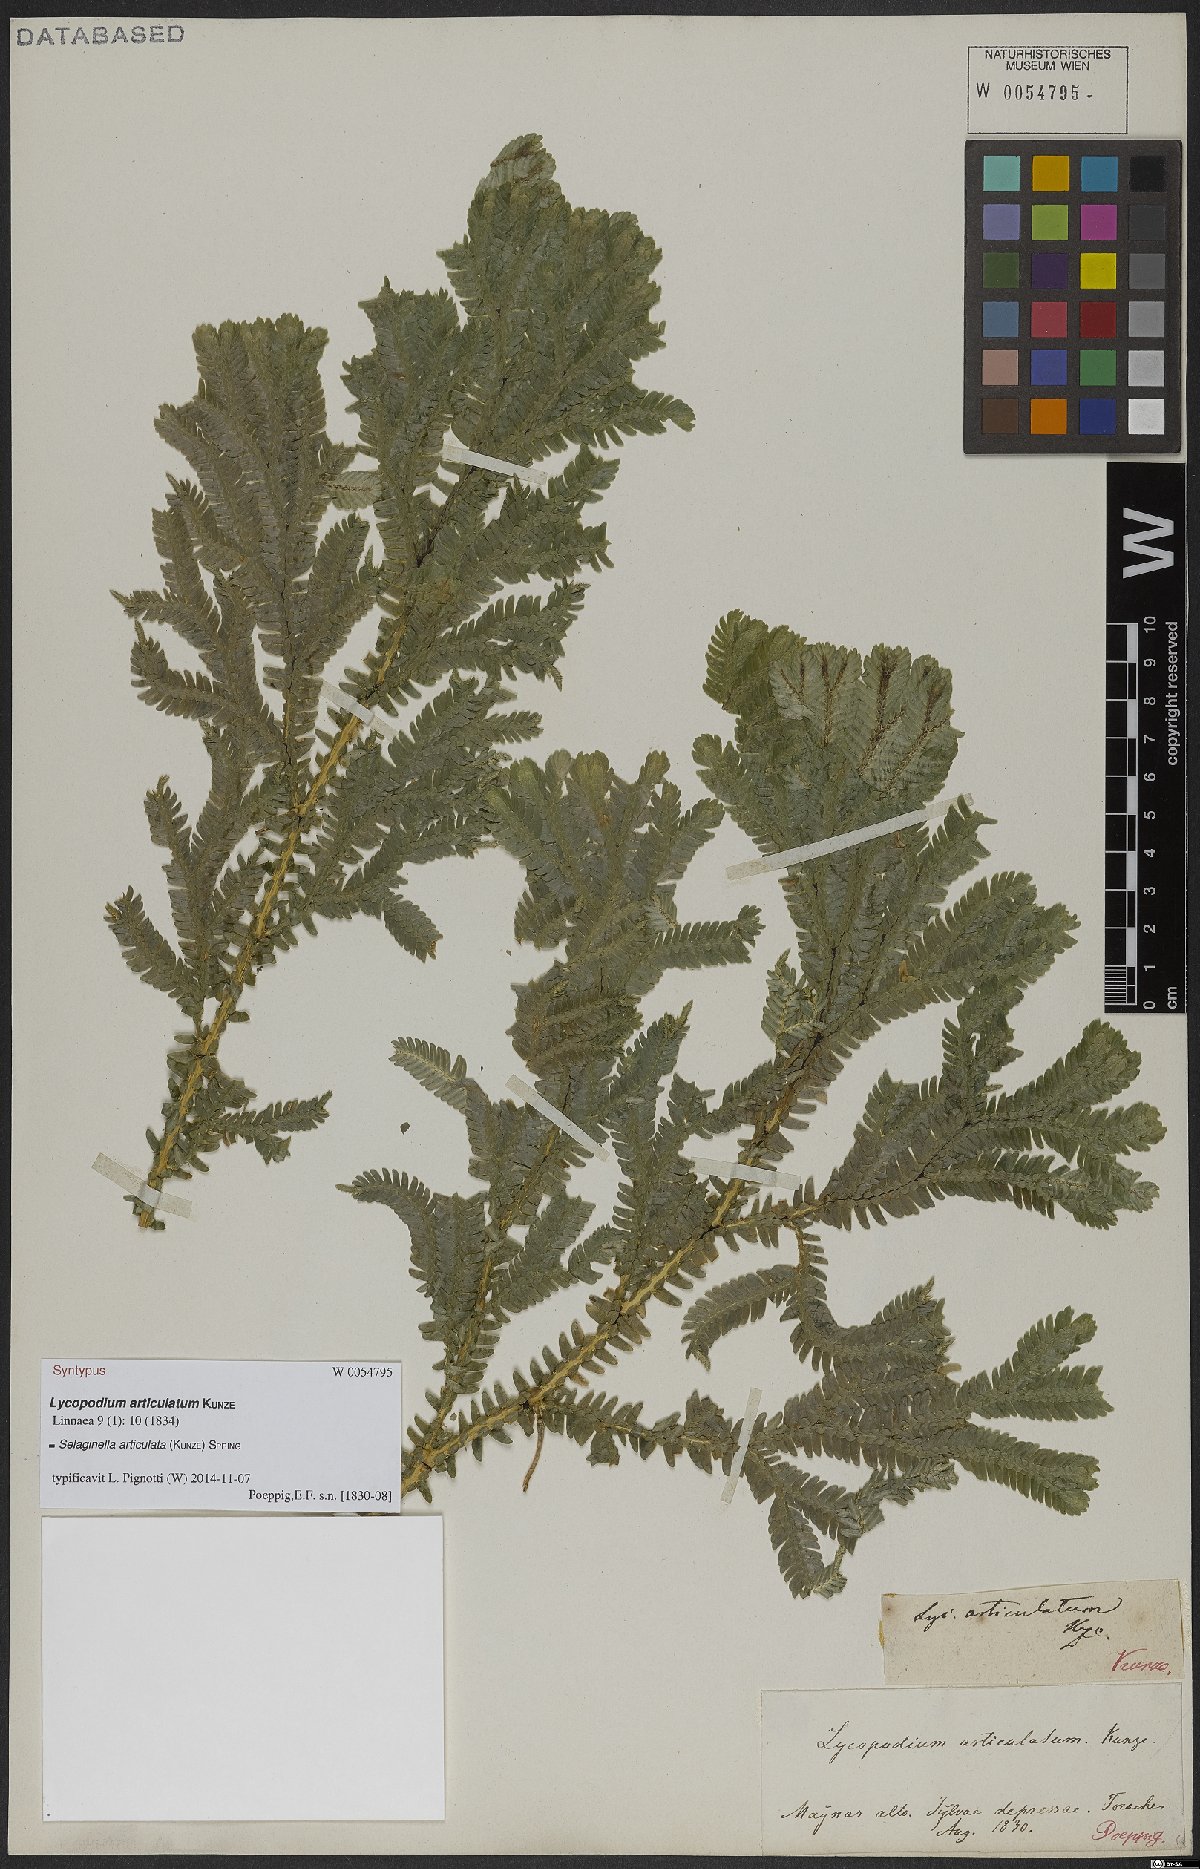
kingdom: Plantae
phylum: Tracheophyta
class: Lycopodiopsida
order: Selaginellales
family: Selaginellaceae
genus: Selaginella
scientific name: Selaginella articulata
